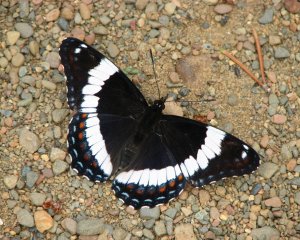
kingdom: Animalia
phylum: Arthropoda
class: Insecta
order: Lepidoptera
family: Nymphalidae
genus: Limenitis
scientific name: Limenitis arthemis
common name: Red-spotted Admiral
